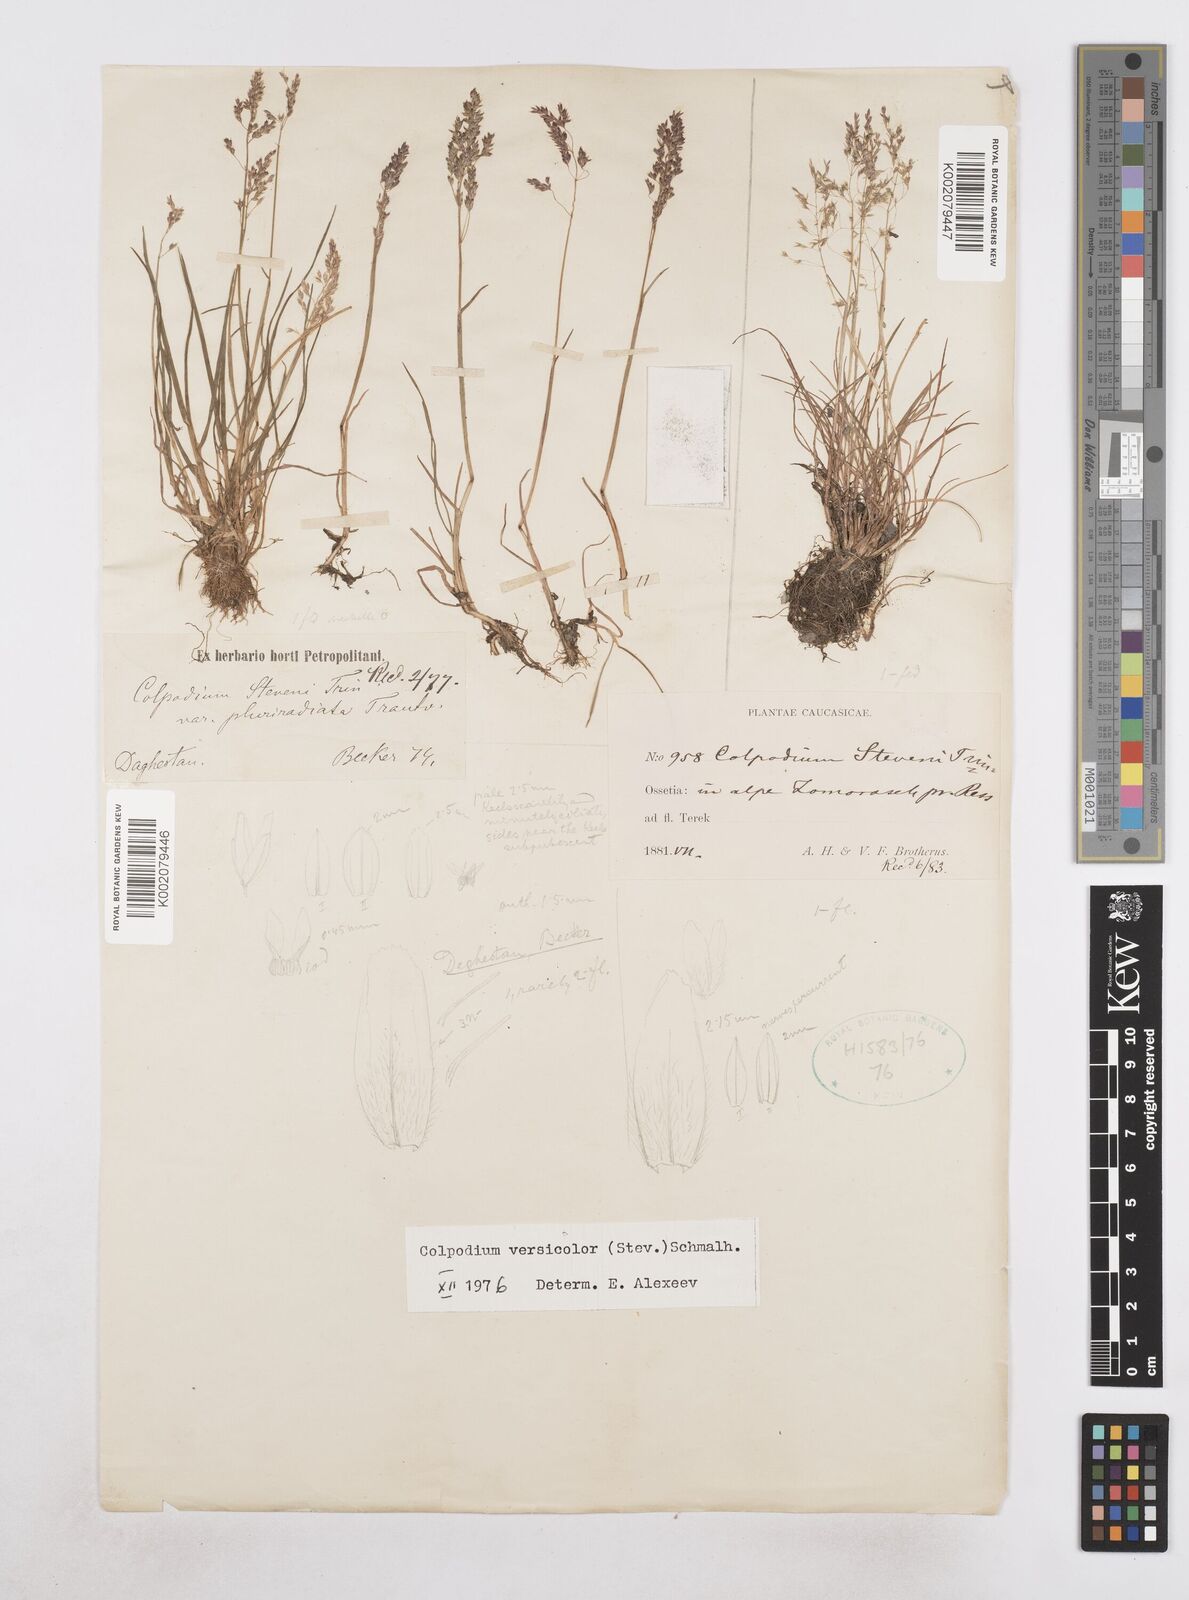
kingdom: Plantae
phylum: Tracheophyta
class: Liliopsida
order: Poales
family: Poaceae
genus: Colpodium
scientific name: Colpodium versicolor
